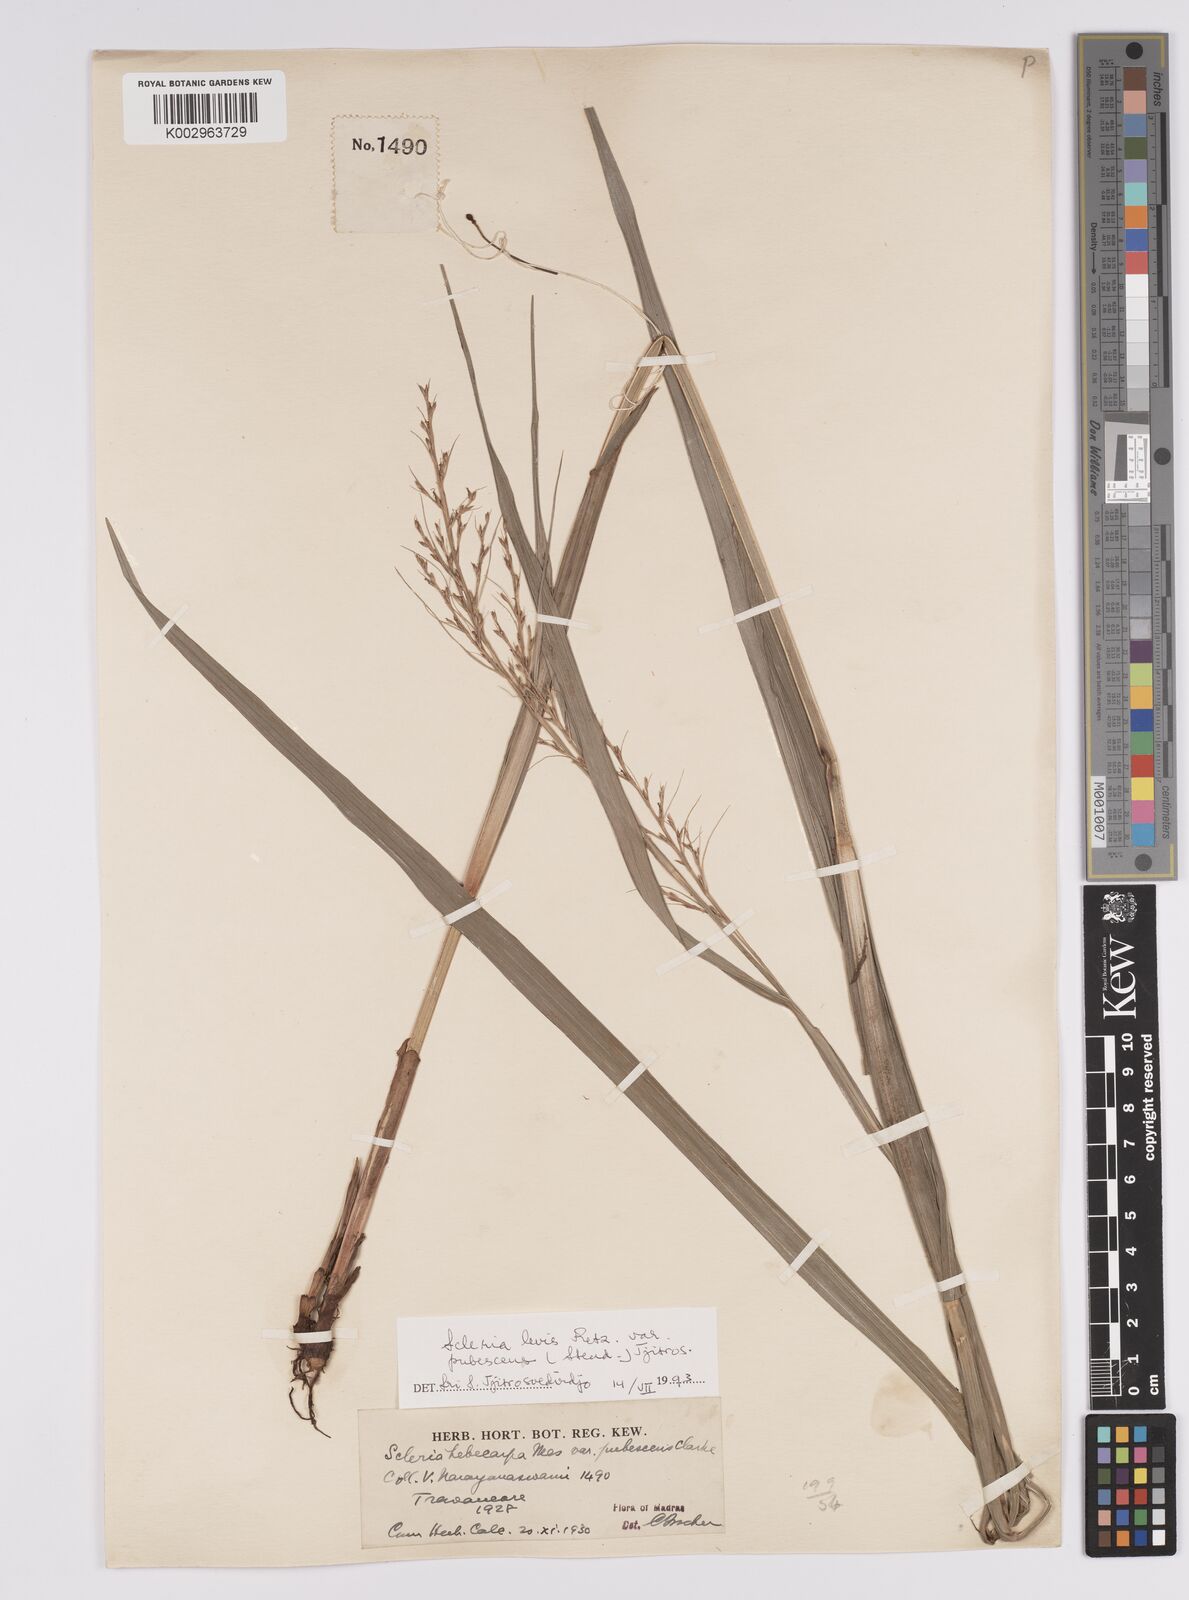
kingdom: Plantae
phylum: Tracheophyta
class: Liliopsida
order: Poales
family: Cyperaceae
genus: Scleria
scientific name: Scleria levis
